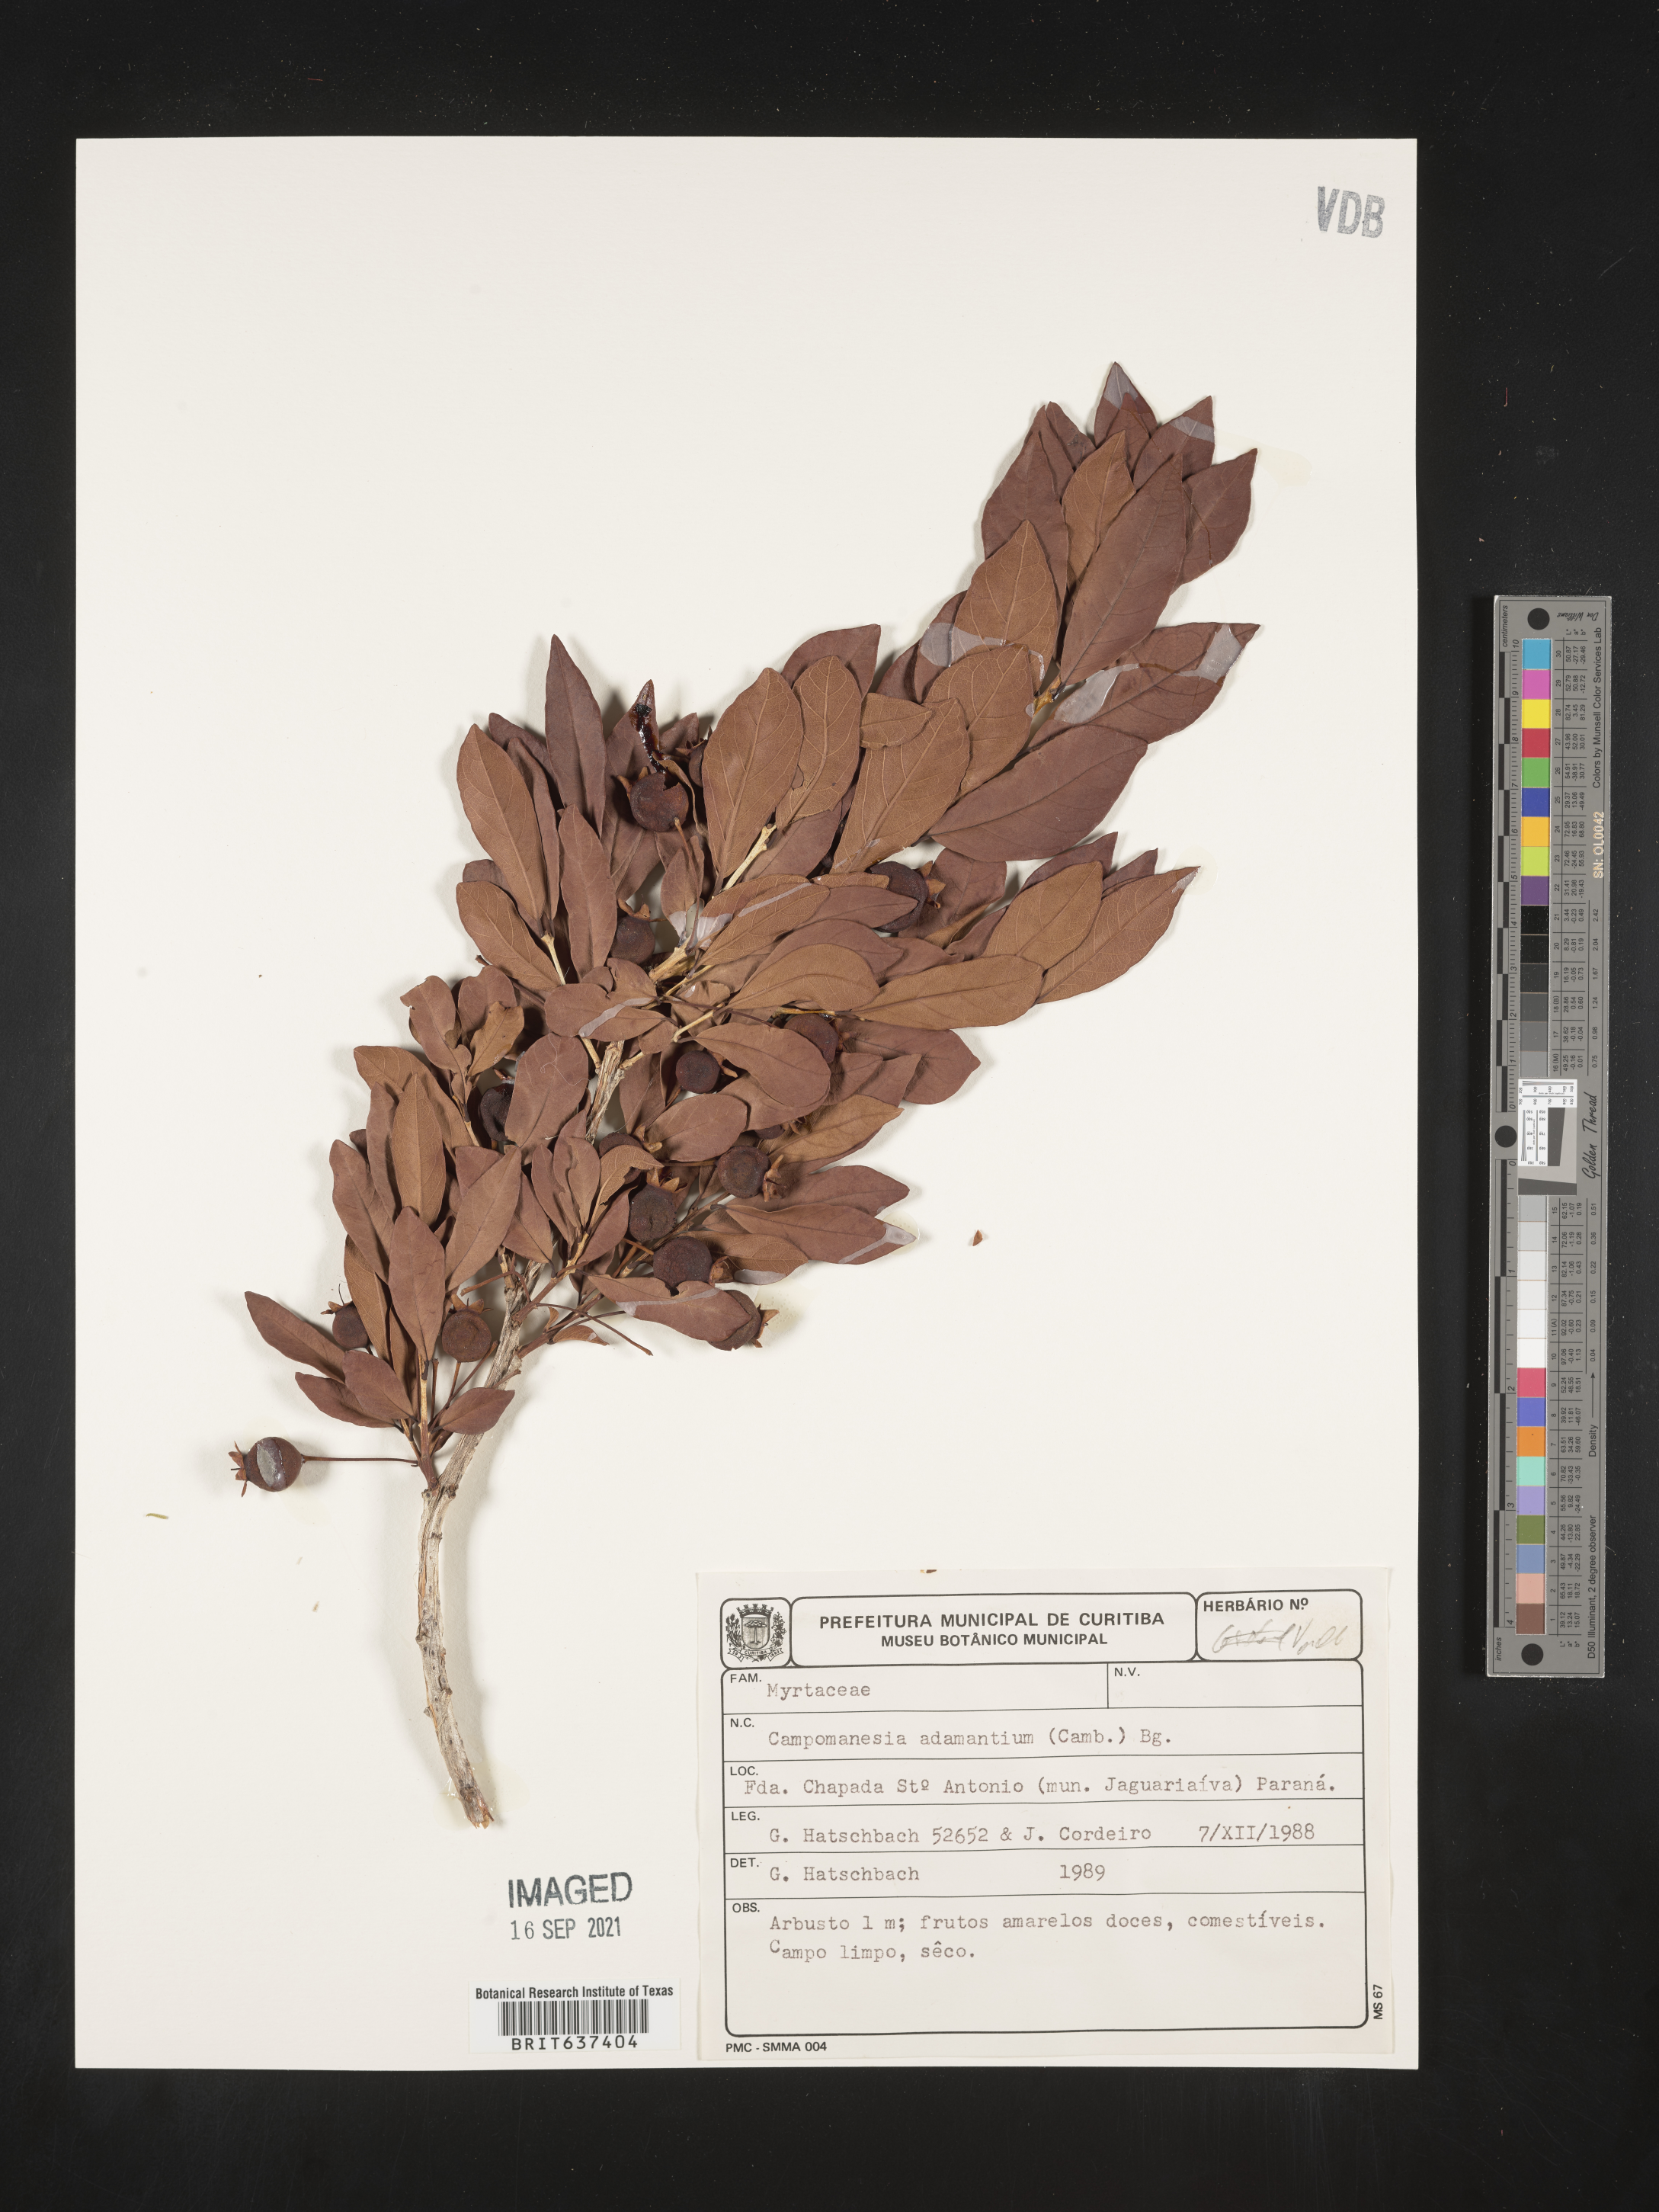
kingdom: Plantae
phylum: Tracheophyta
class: Magnoliopsida
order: Myrtales
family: Myrtaceae
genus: Campomanesia
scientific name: Campomanesia
